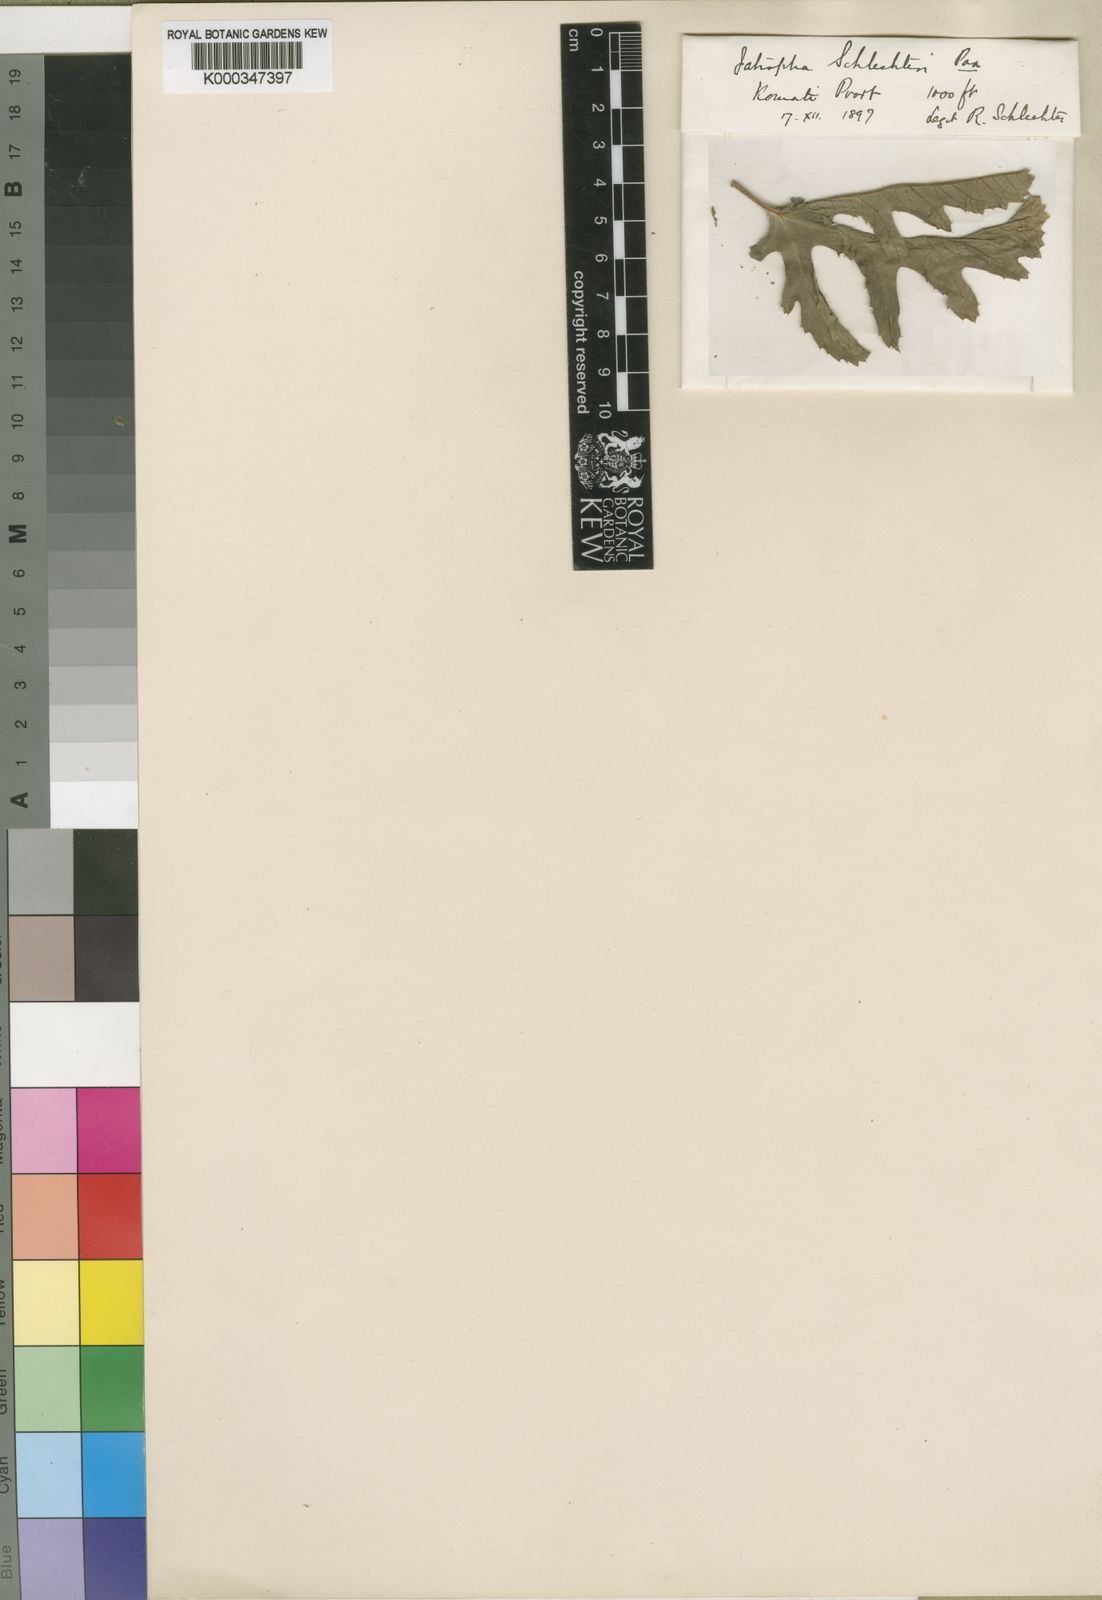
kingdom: Plantae
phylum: Tracheophyta
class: Magnoliopsida
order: Malpighiales
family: Euphorbiaceae
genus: Jatropha
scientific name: Jatropha schlechteri
